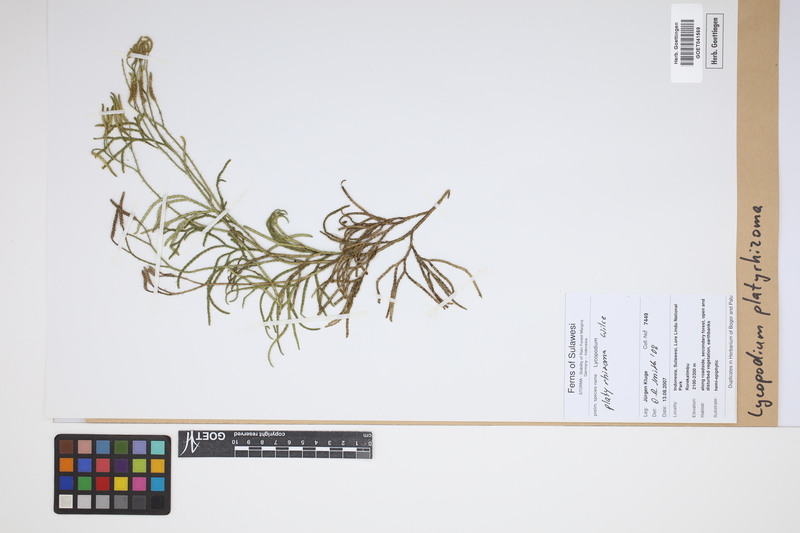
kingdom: Plantae
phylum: Tracheophyta
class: Lycopodiopsida
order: Lycopodiales
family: Lycopodiaceae
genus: Diphasiastrum
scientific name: Diphasiastrum platyrhizoma
